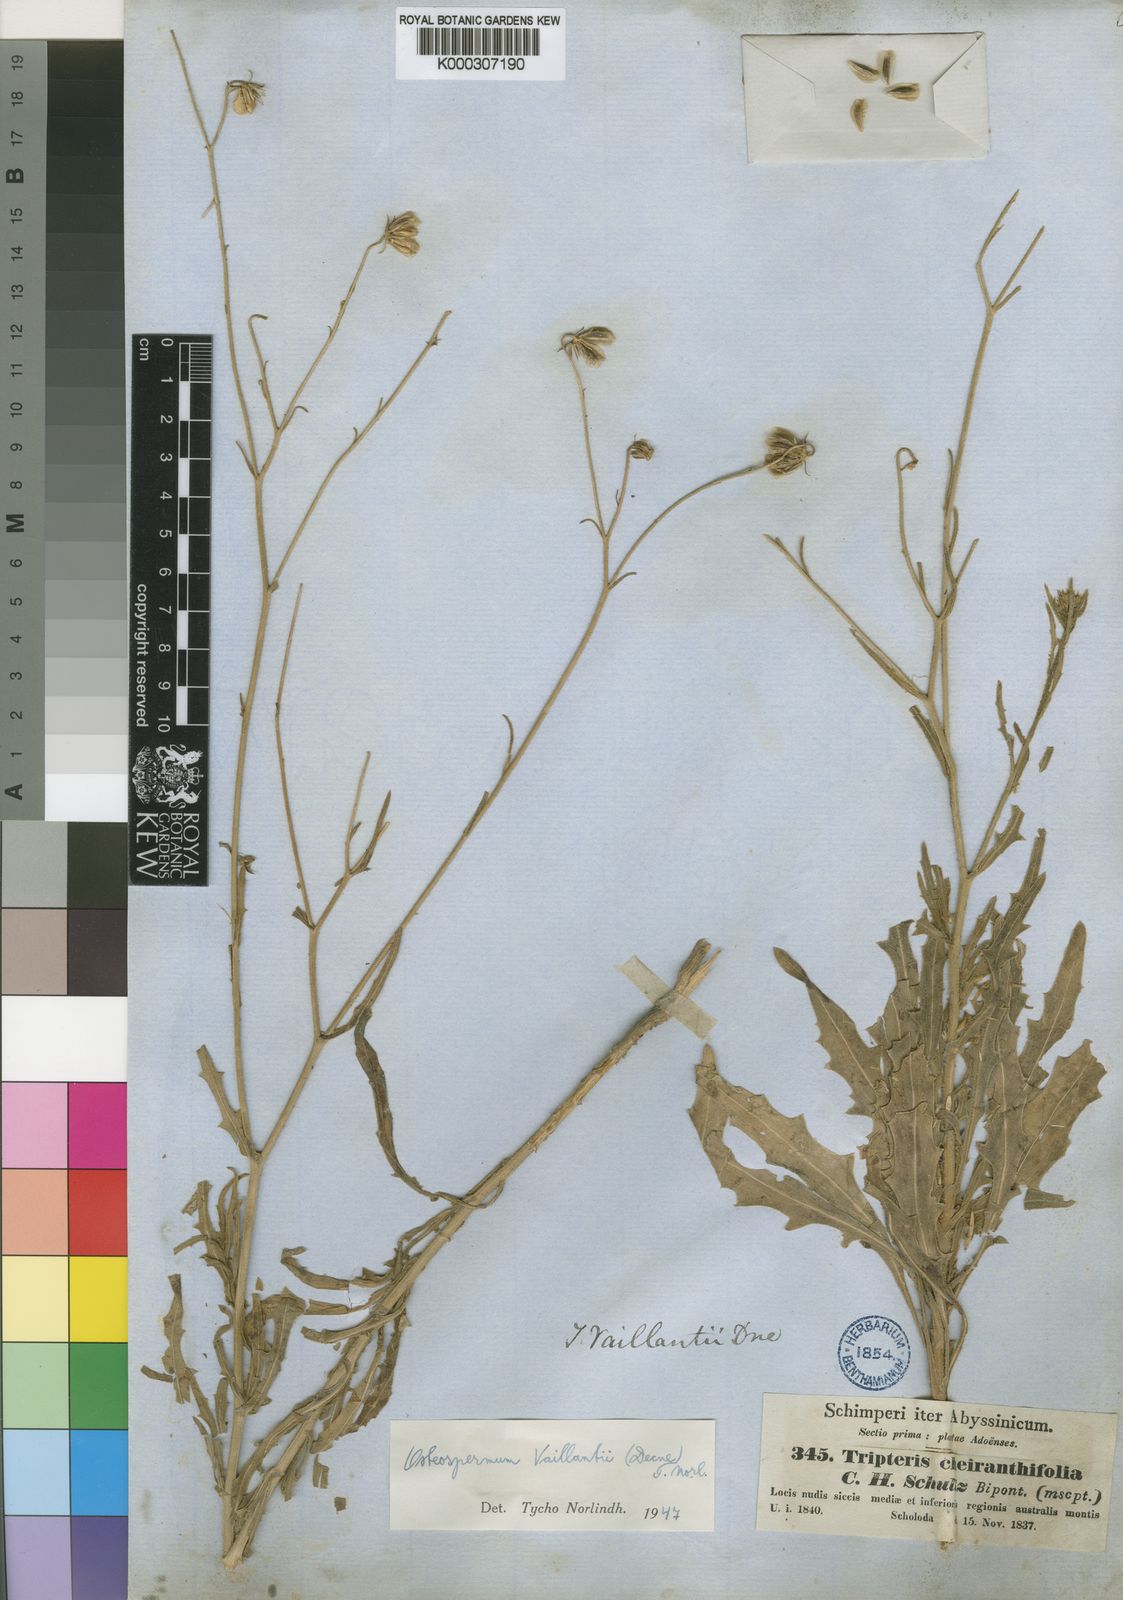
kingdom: Plantae
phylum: Tracheophyta
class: Magnoliopsida
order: Asterales
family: Asteraceae
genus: Osteospermum
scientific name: Osteospermum vaillantii
